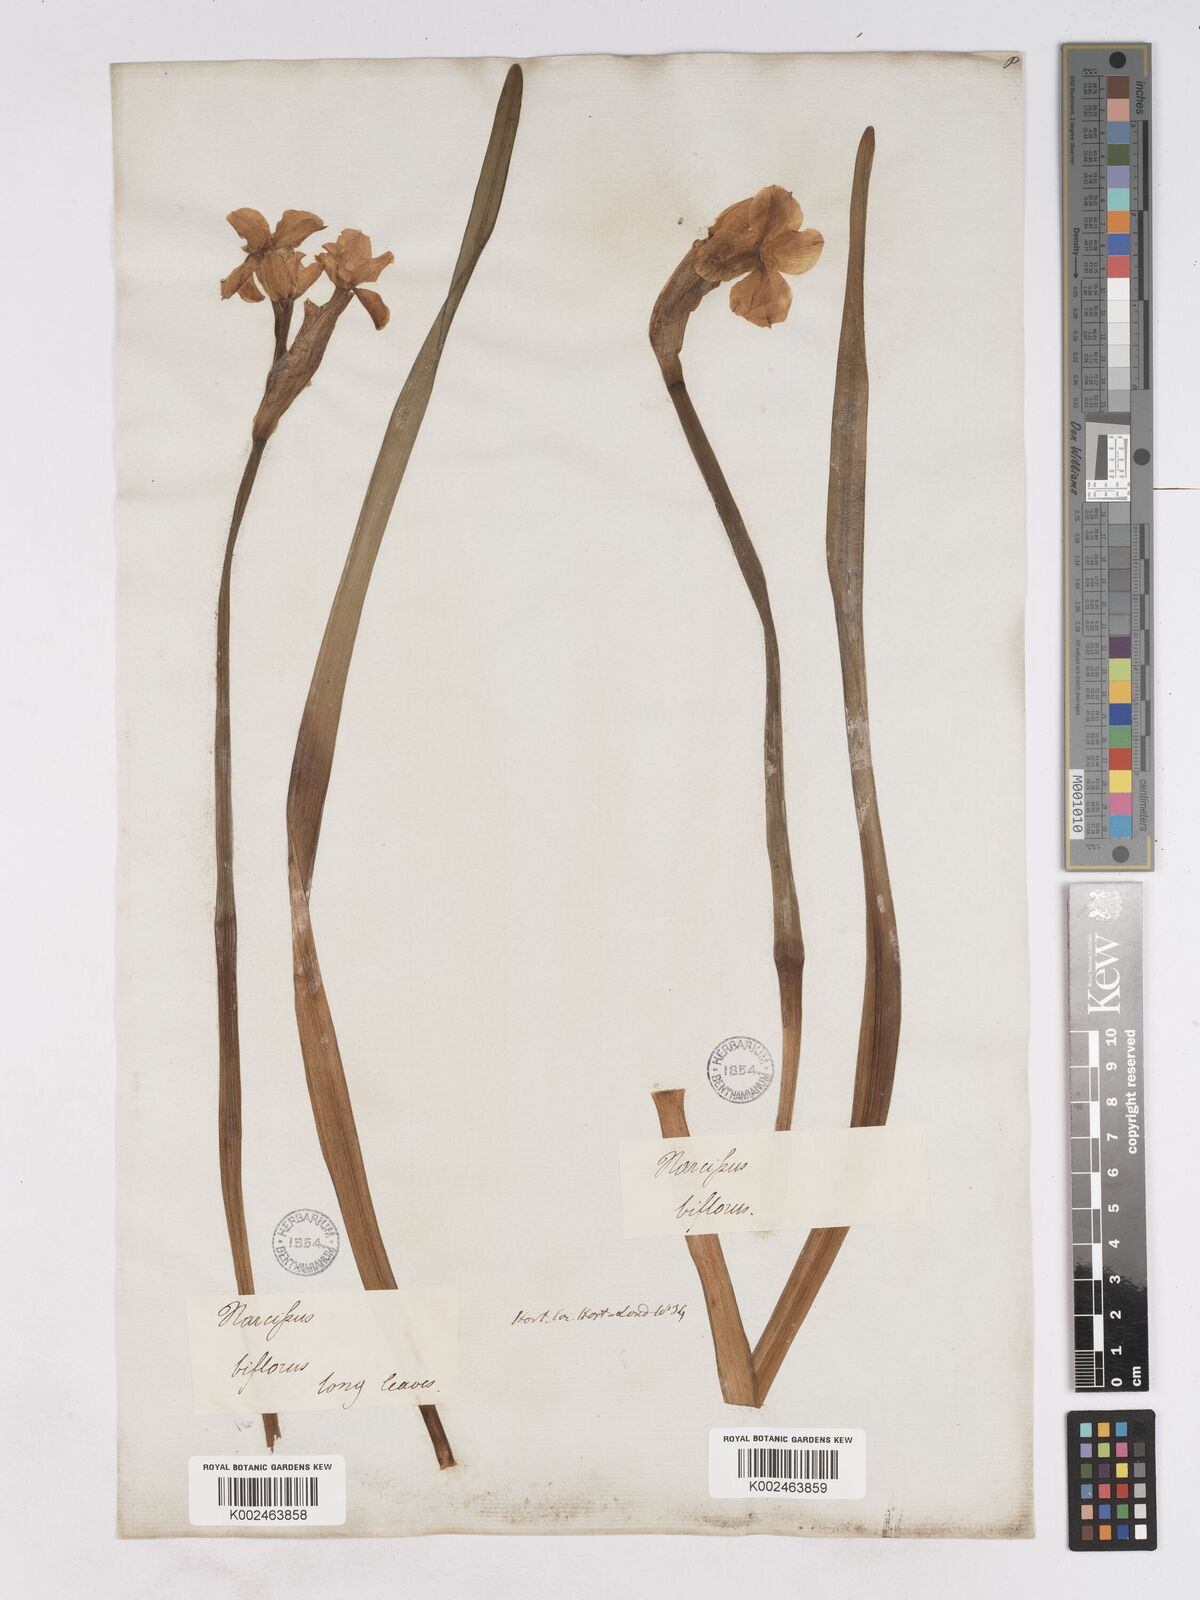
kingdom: Plantae
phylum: Tracheophyta
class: Liliopsida
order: Asparagales
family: Amaryllidaceae
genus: Narcissus
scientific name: Narcissus medioluteus
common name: Primrose-peerless
